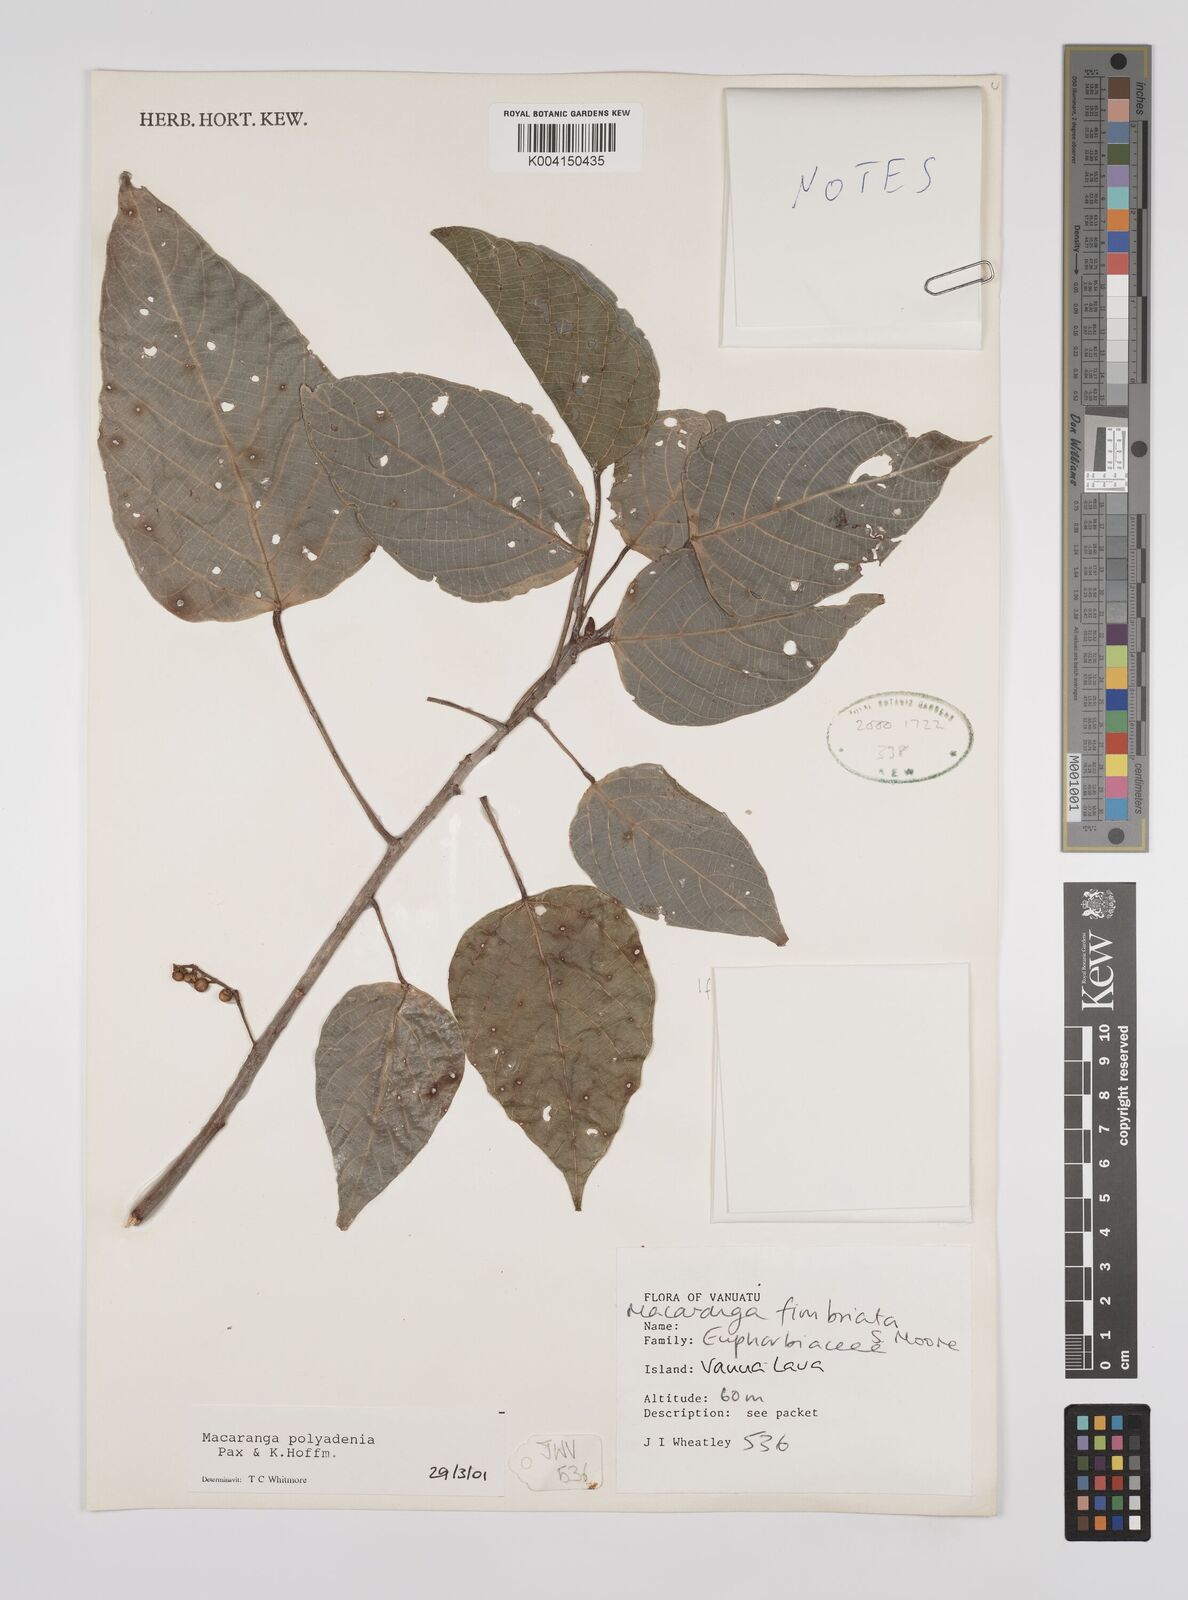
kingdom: Plantae
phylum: Tracheophyta
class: Magnoliopsida
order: Malpighiales
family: Euphorbiaceae
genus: Macaranga
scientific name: Macaranga polyadenia
